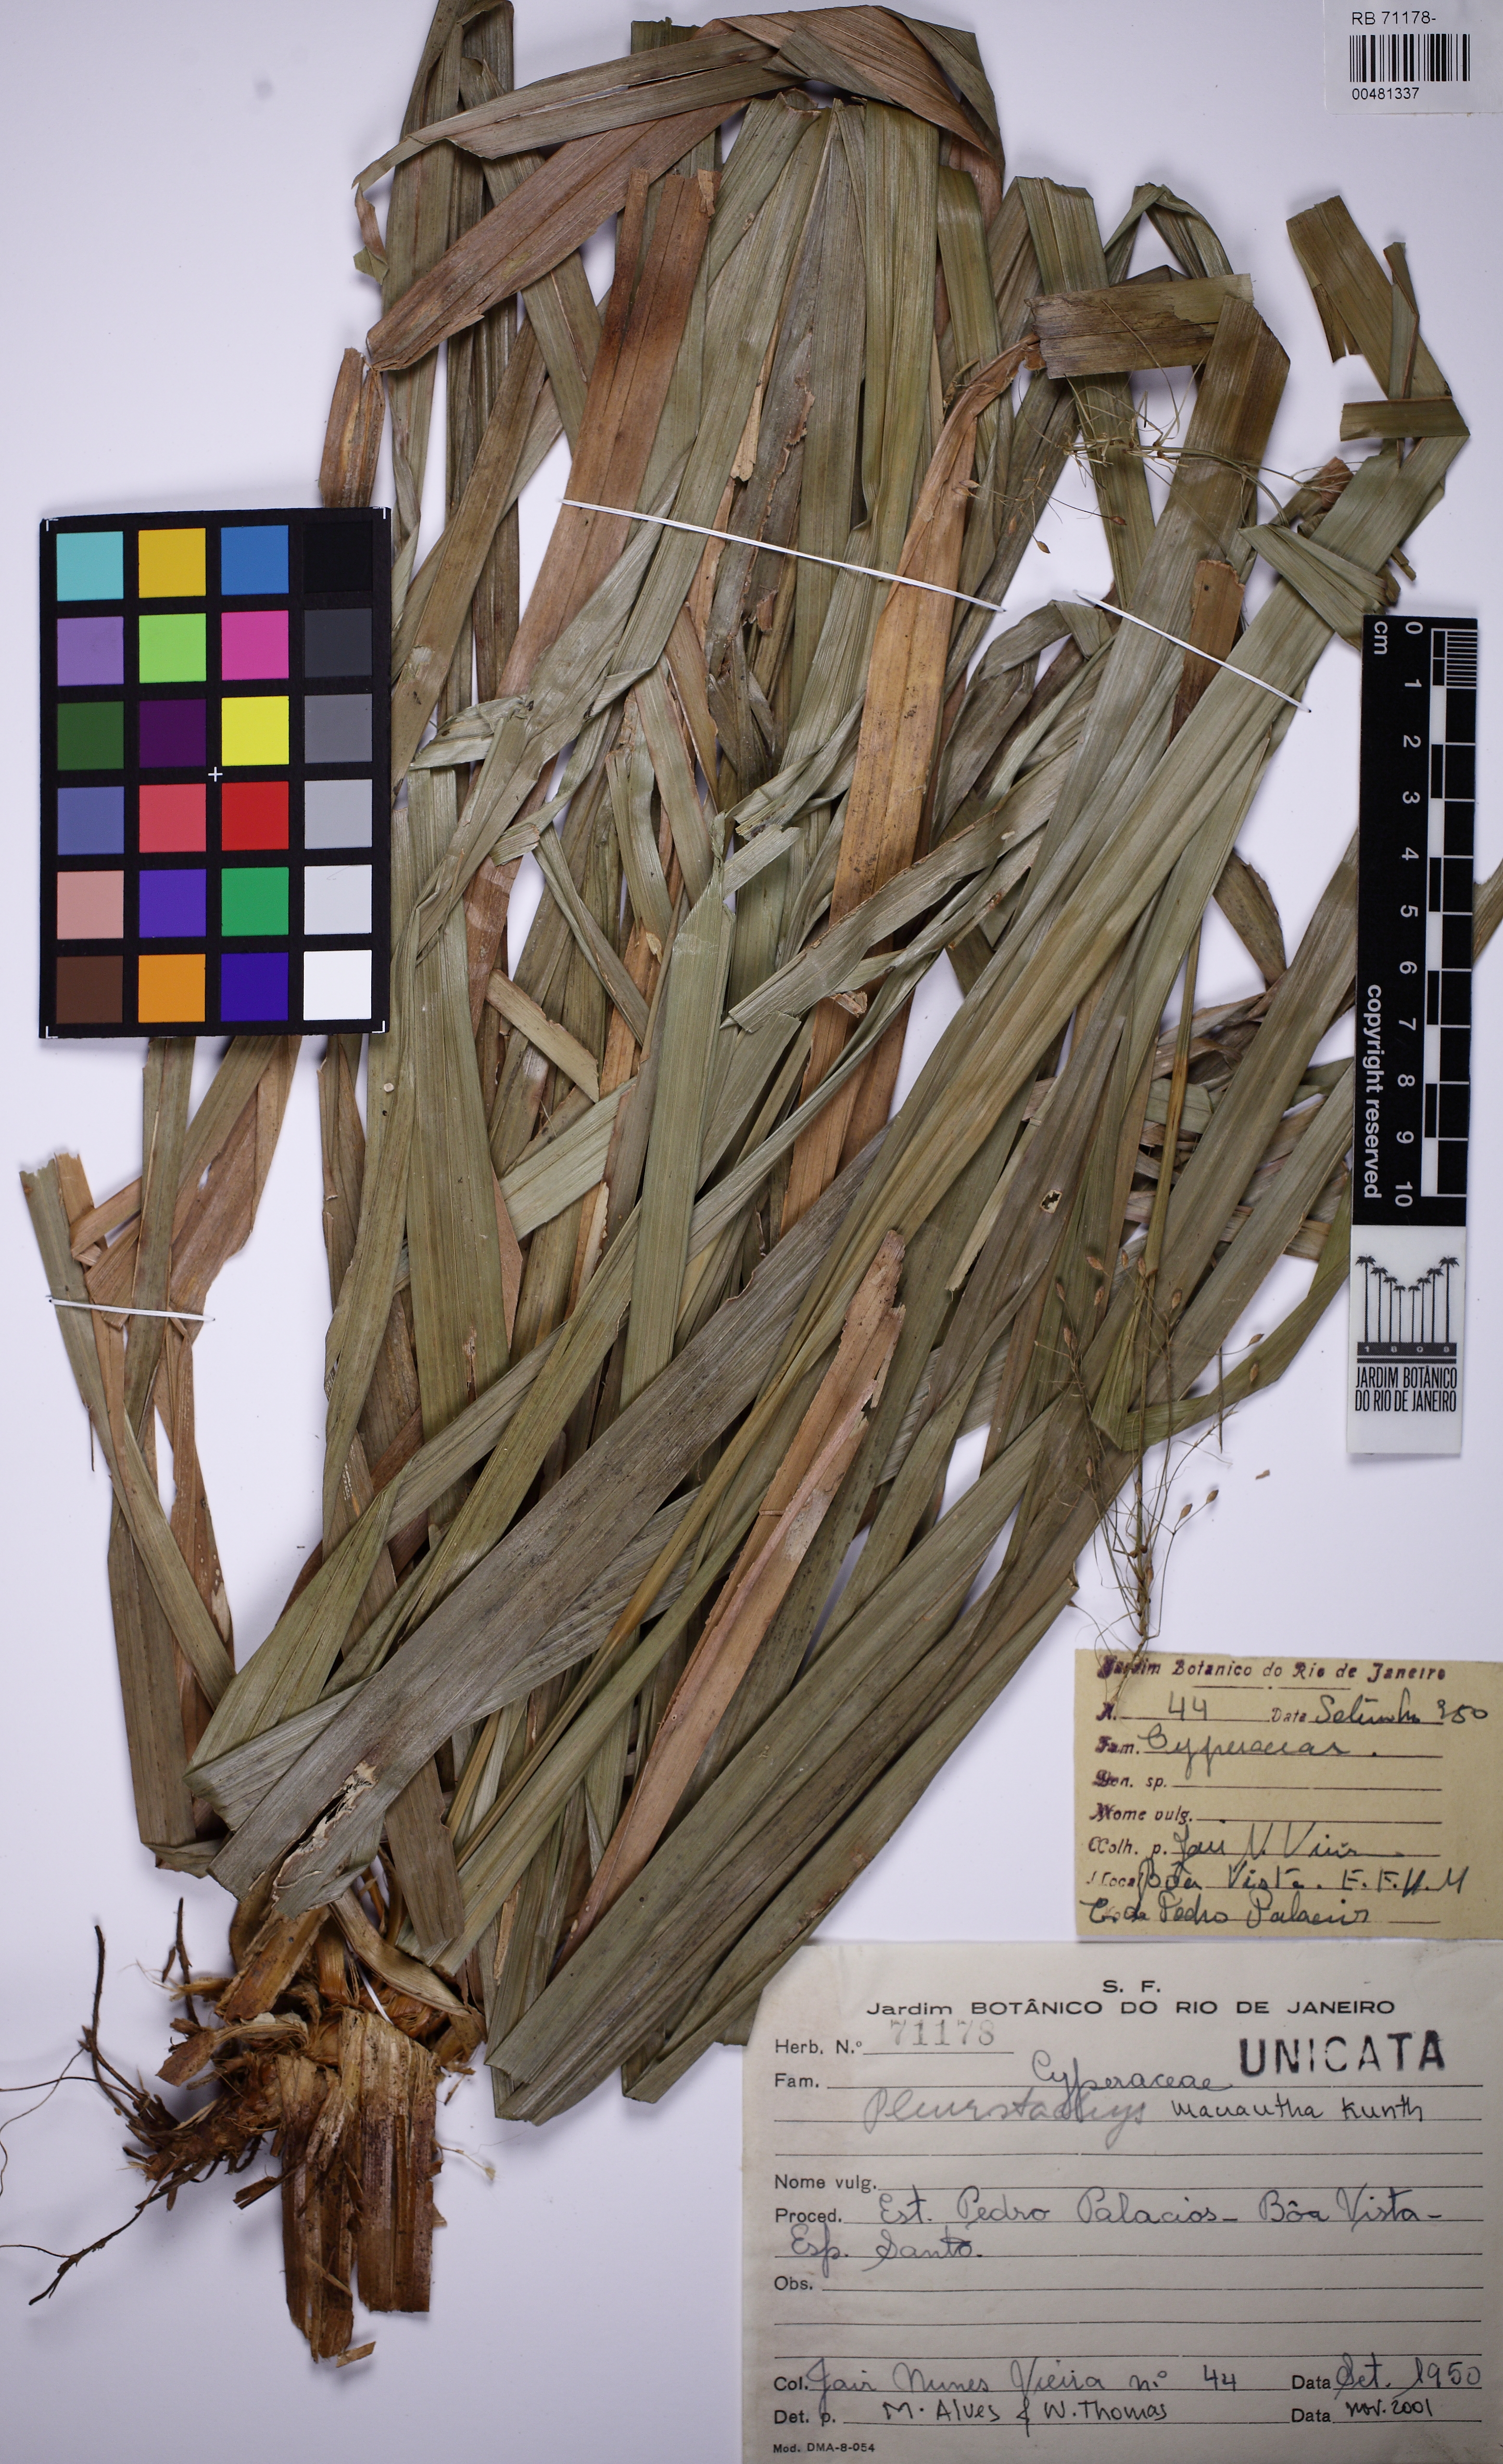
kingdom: Plantae
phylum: Tracheophyta
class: Liliopsida
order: Poales
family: Cyperaceae
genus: Rhynchospora
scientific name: Rhynchospora macrantha
